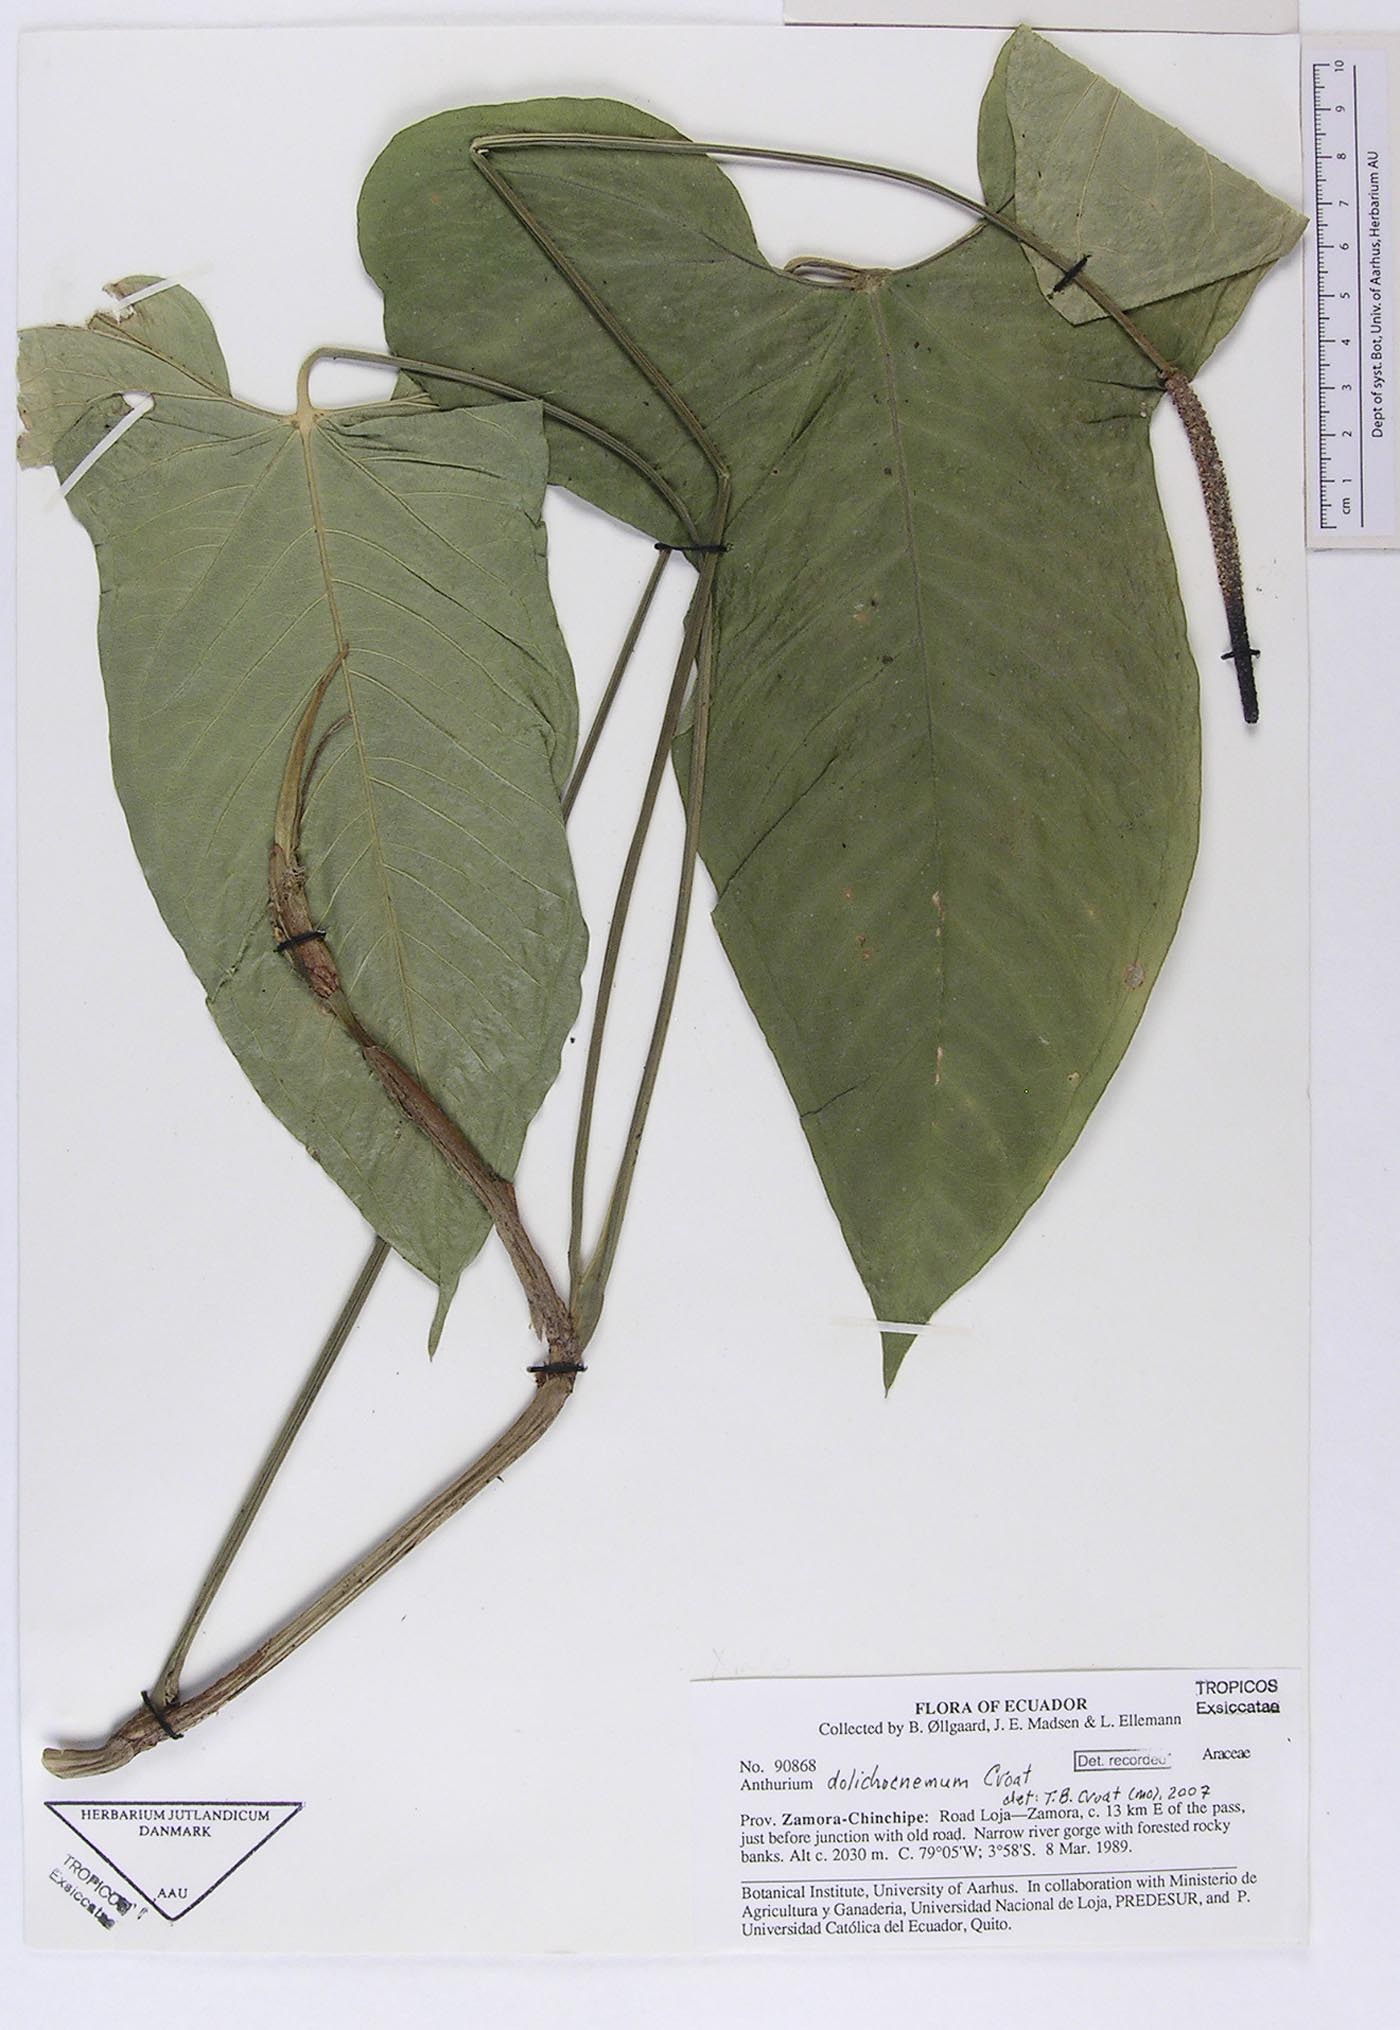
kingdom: Plantae
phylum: Tracheophyta
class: Liliopsida
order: Alismatales
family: Araceae
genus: Anthurium
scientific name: Anthurium dolichocnemum
